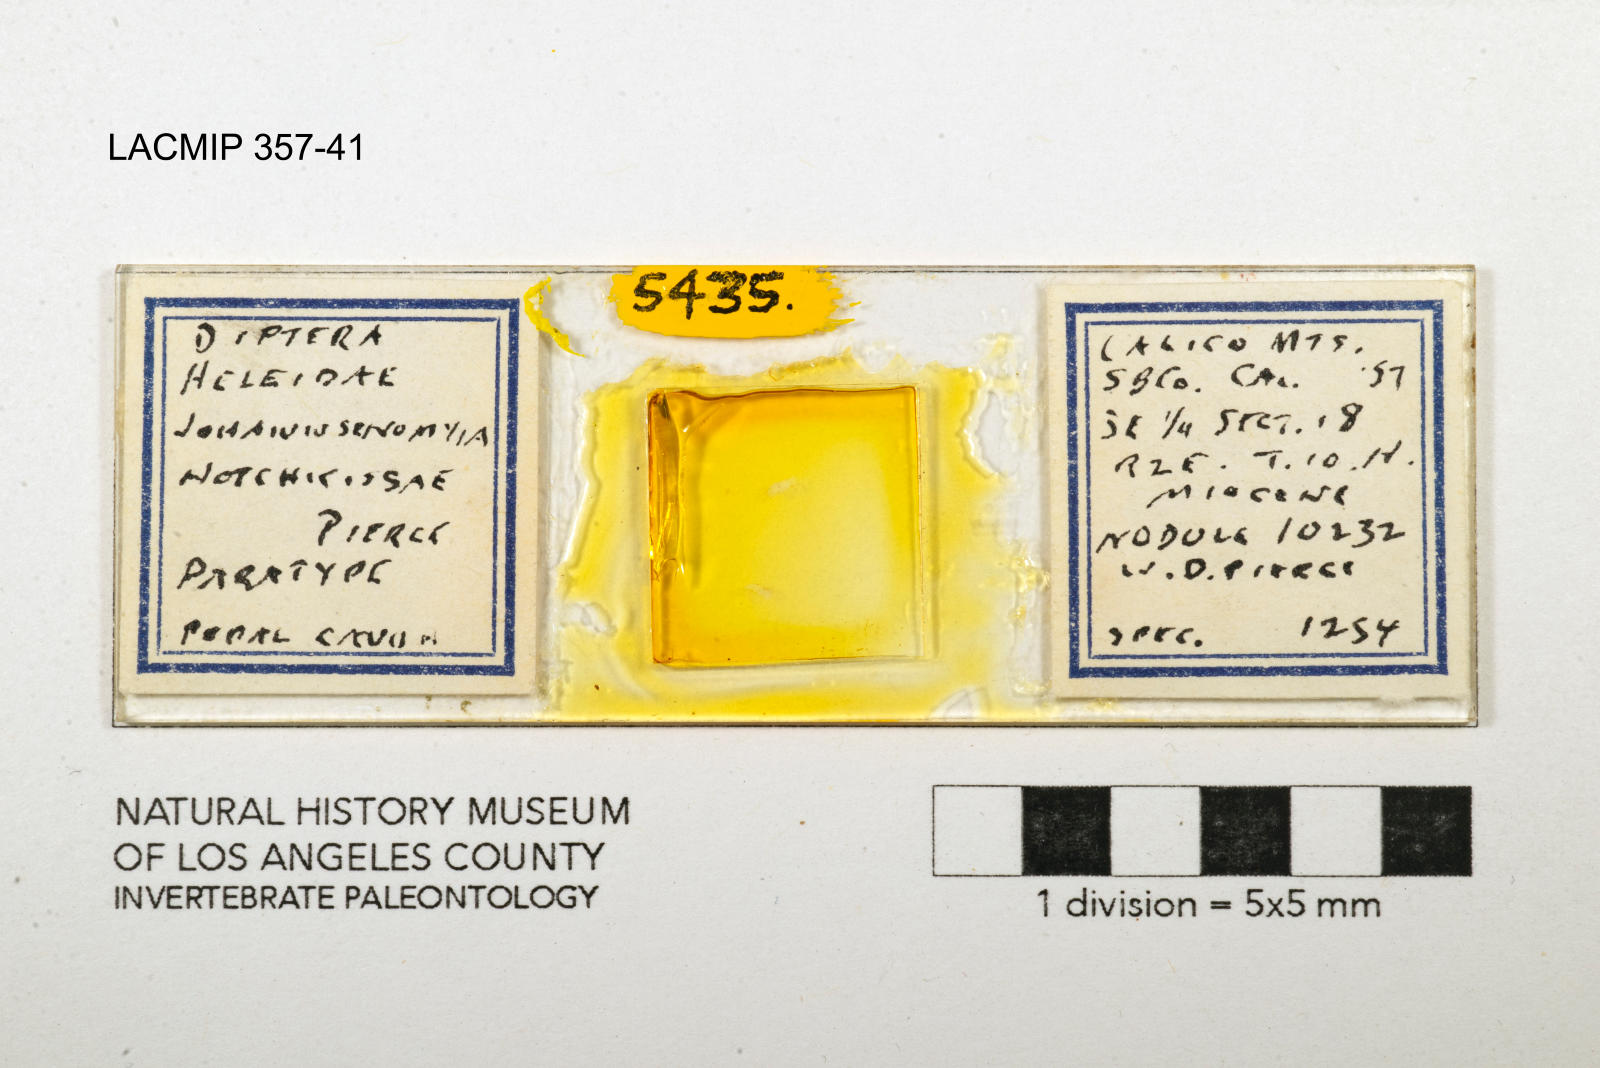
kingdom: Animalia
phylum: Arthropoda
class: Insecta
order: Diptera
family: Ceratopogonidae
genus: Johannsenomyia
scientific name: Johannsenomyia
